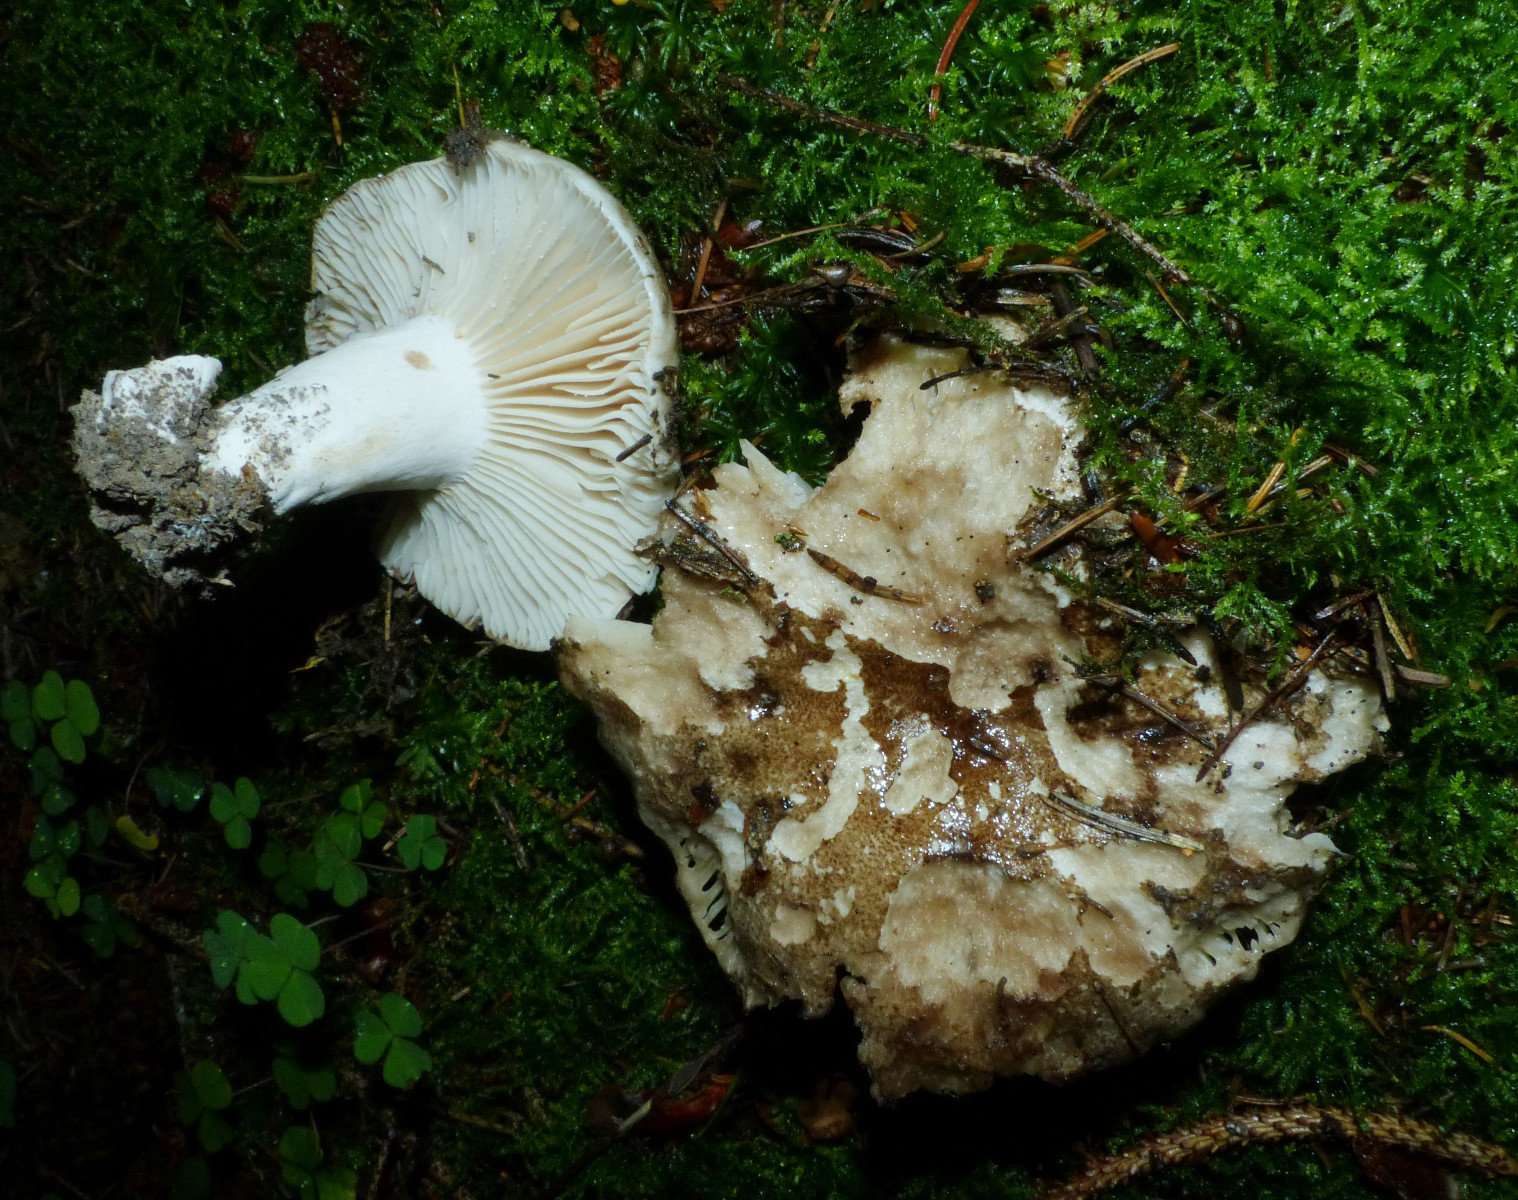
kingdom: Fungi
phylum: Basidiomycota
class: Agaricomycetes
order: Russulales
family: Russulaceae
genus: Russula
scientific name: Russula adusta
